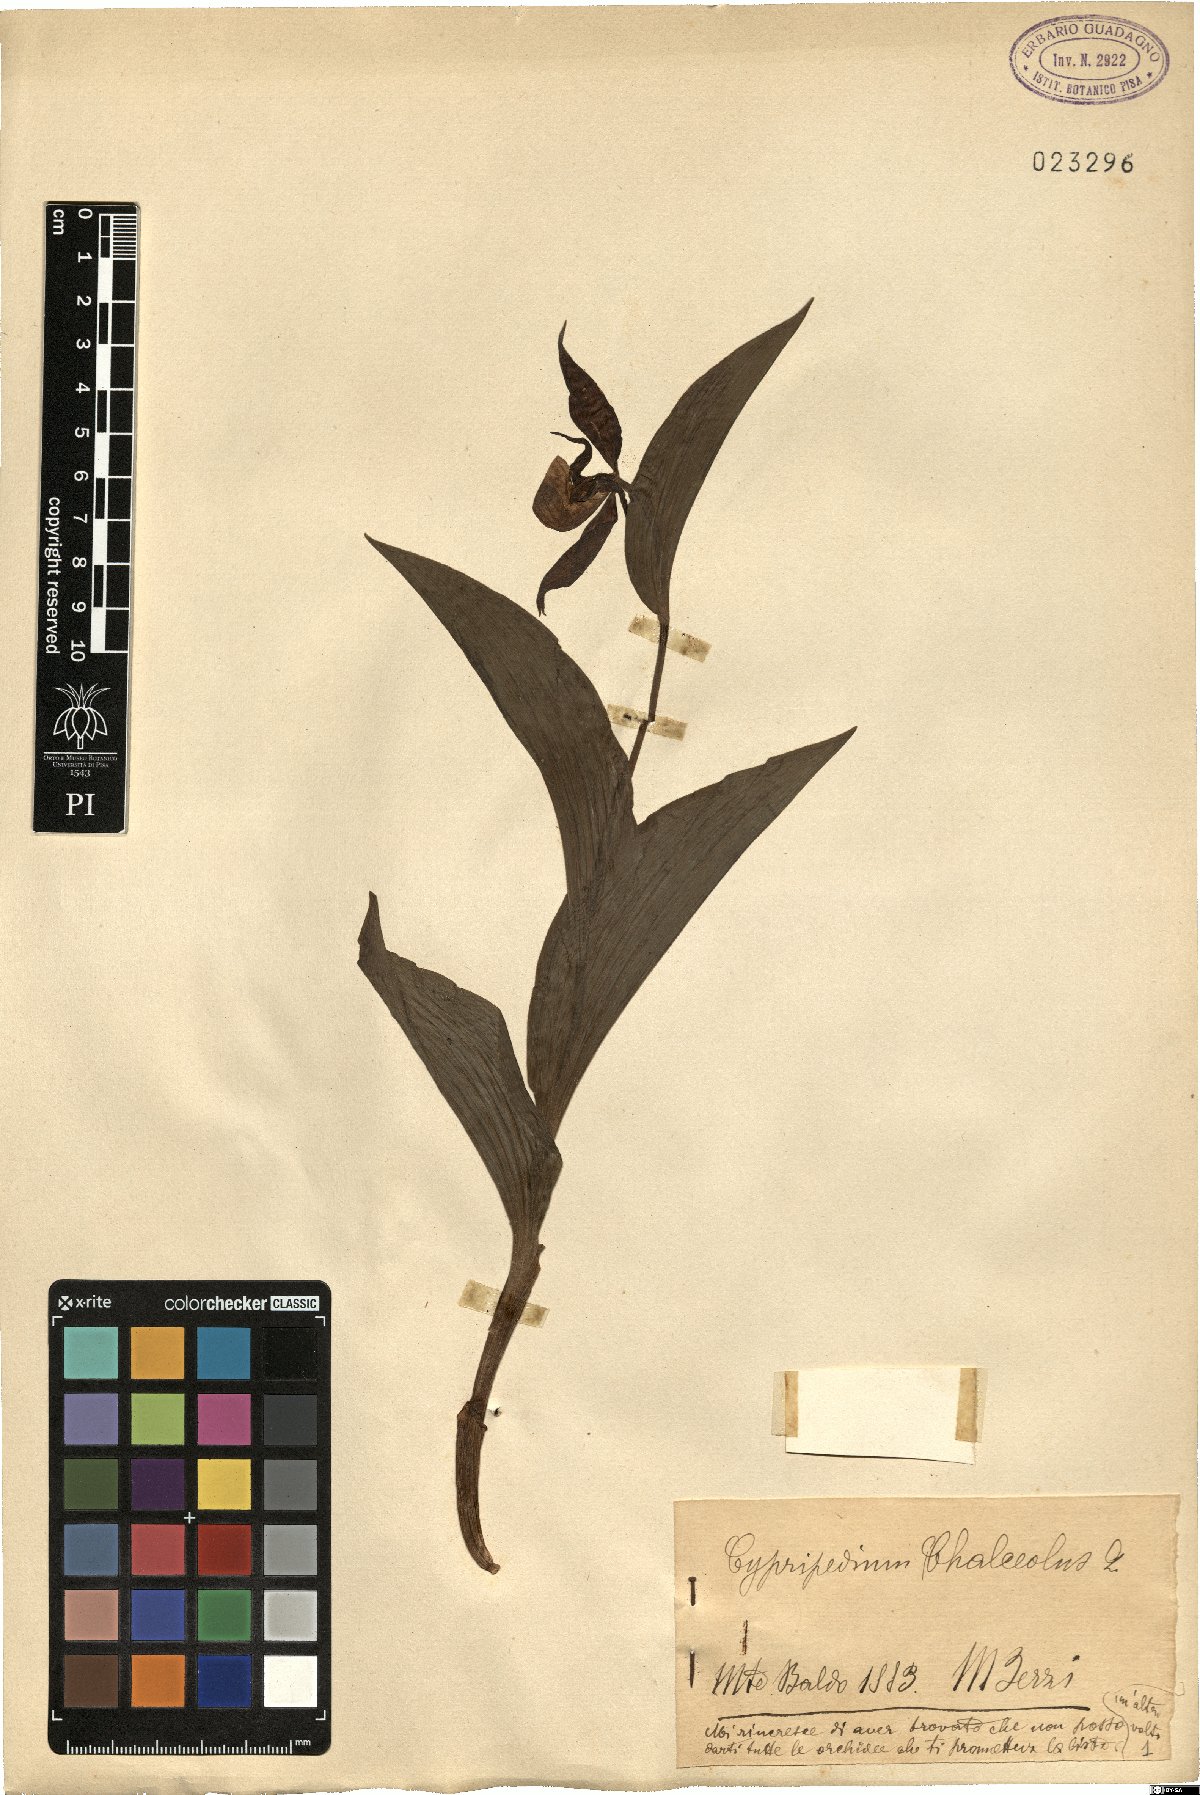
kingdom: Plantae
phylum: Tracheophyta
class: Liliopsida
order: Asparagales
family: Orchidaceae
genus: Cypripedium
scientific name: Cypripedium calceolus
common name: Lady's-slipper
